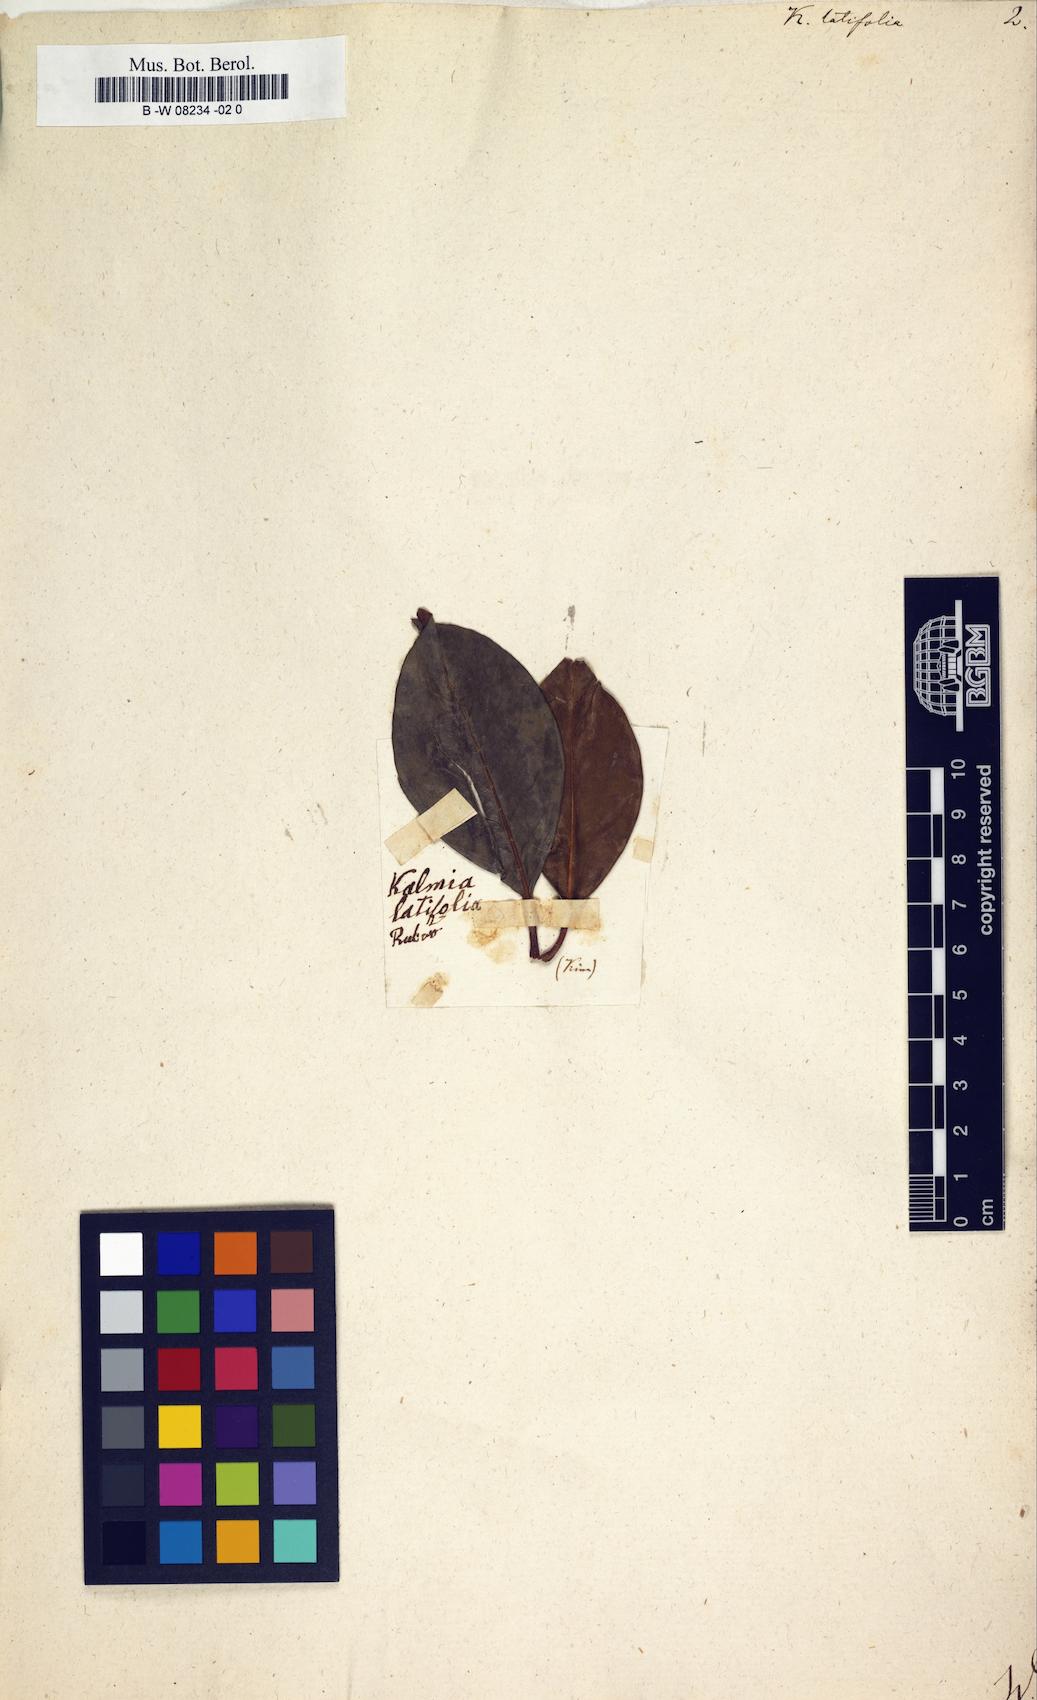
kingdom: Plantae
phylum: Tracheophyta
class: Magnoliopsida
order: Ericales
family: Ericaceae
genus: Kalmia
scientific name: Kalmia latifolia
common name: Mountain-laurel
